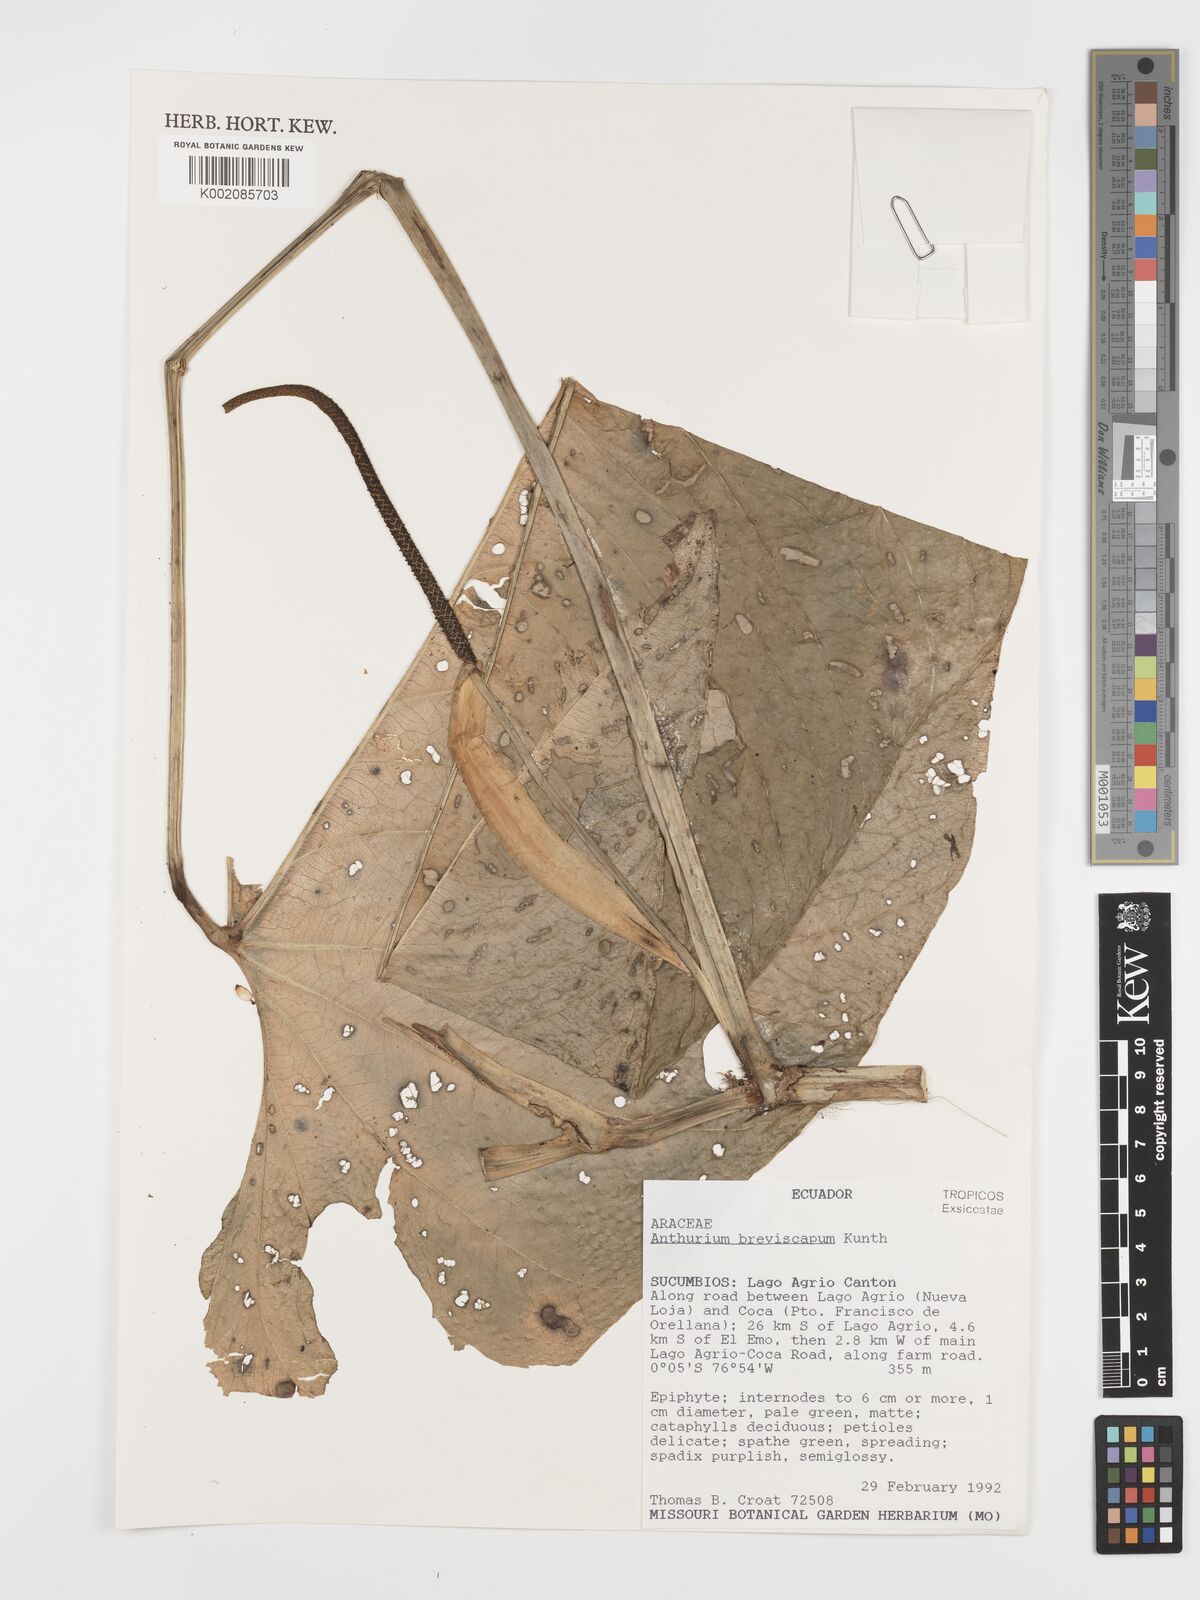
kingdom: Plantae
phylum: Tracheophyta
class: Liliopsida
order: Alismatales
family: Araceae
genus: Anthurium
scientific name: Anthurium breviscapum
